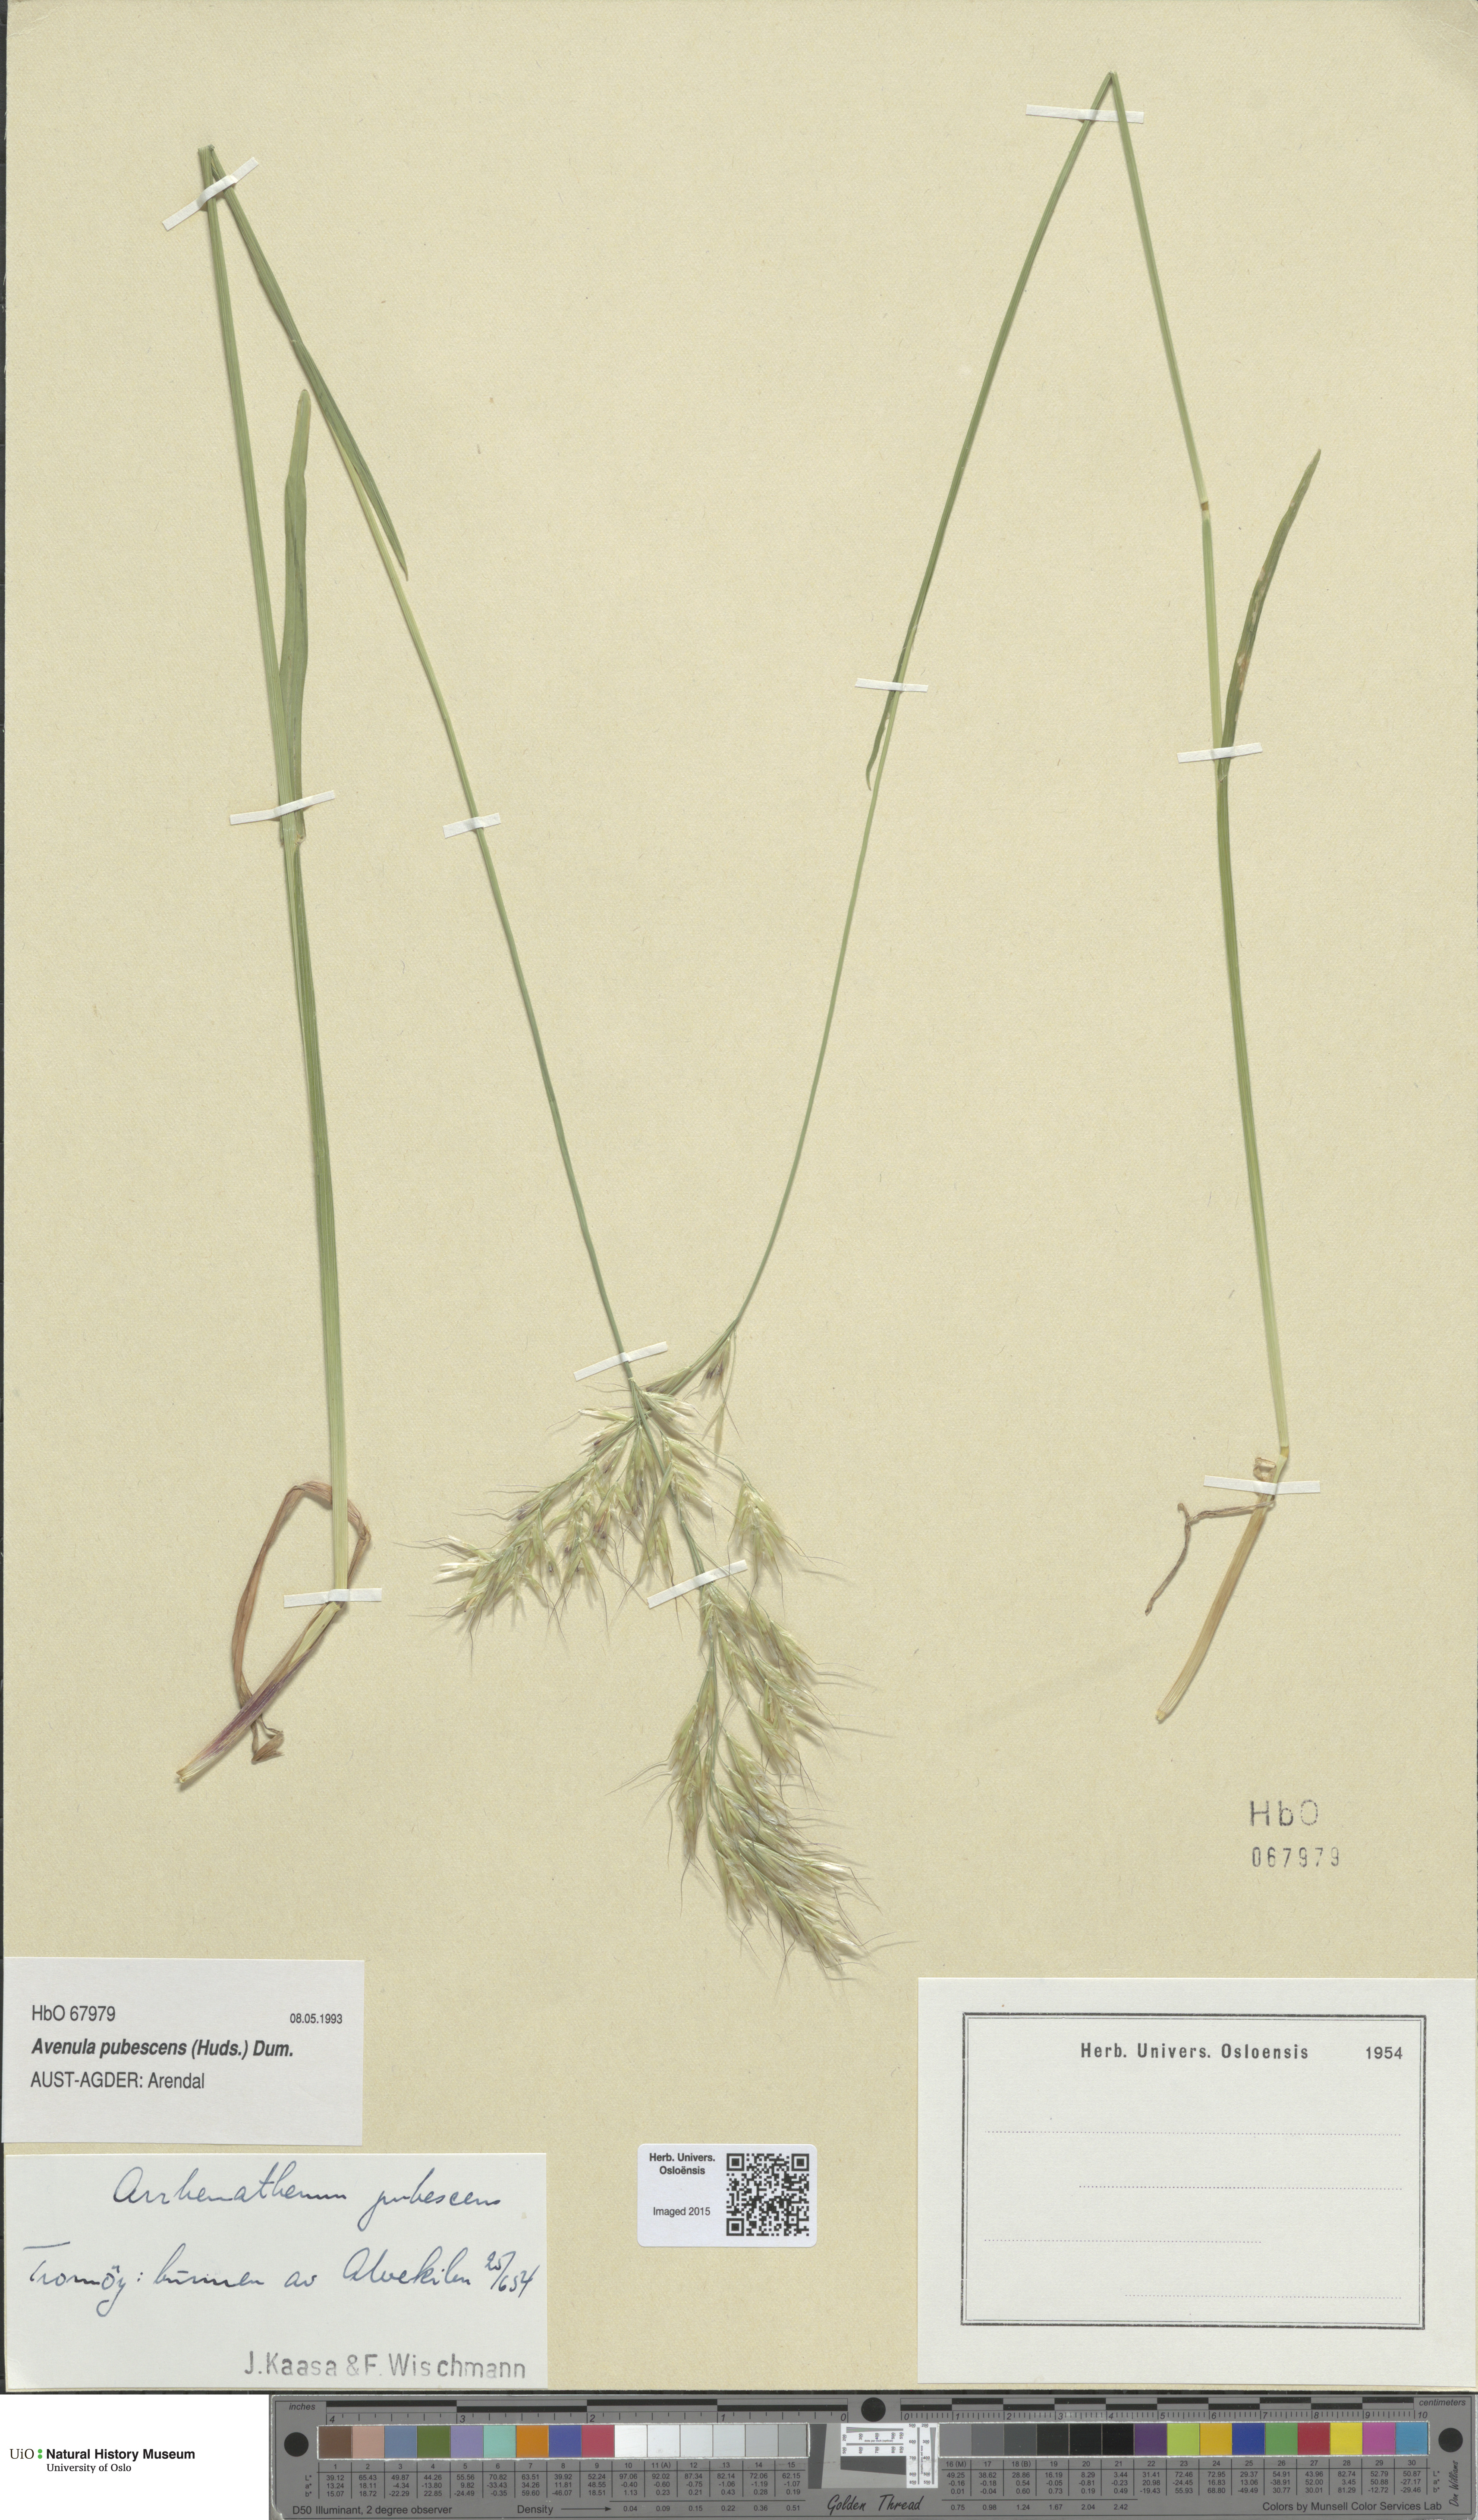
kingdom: Plantae
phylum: Tracheophyta
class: Liliopsida
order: Poales
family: Poaceae
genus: Avenula
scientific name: Avenula pubescens
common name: Downy alpine oatgrass
